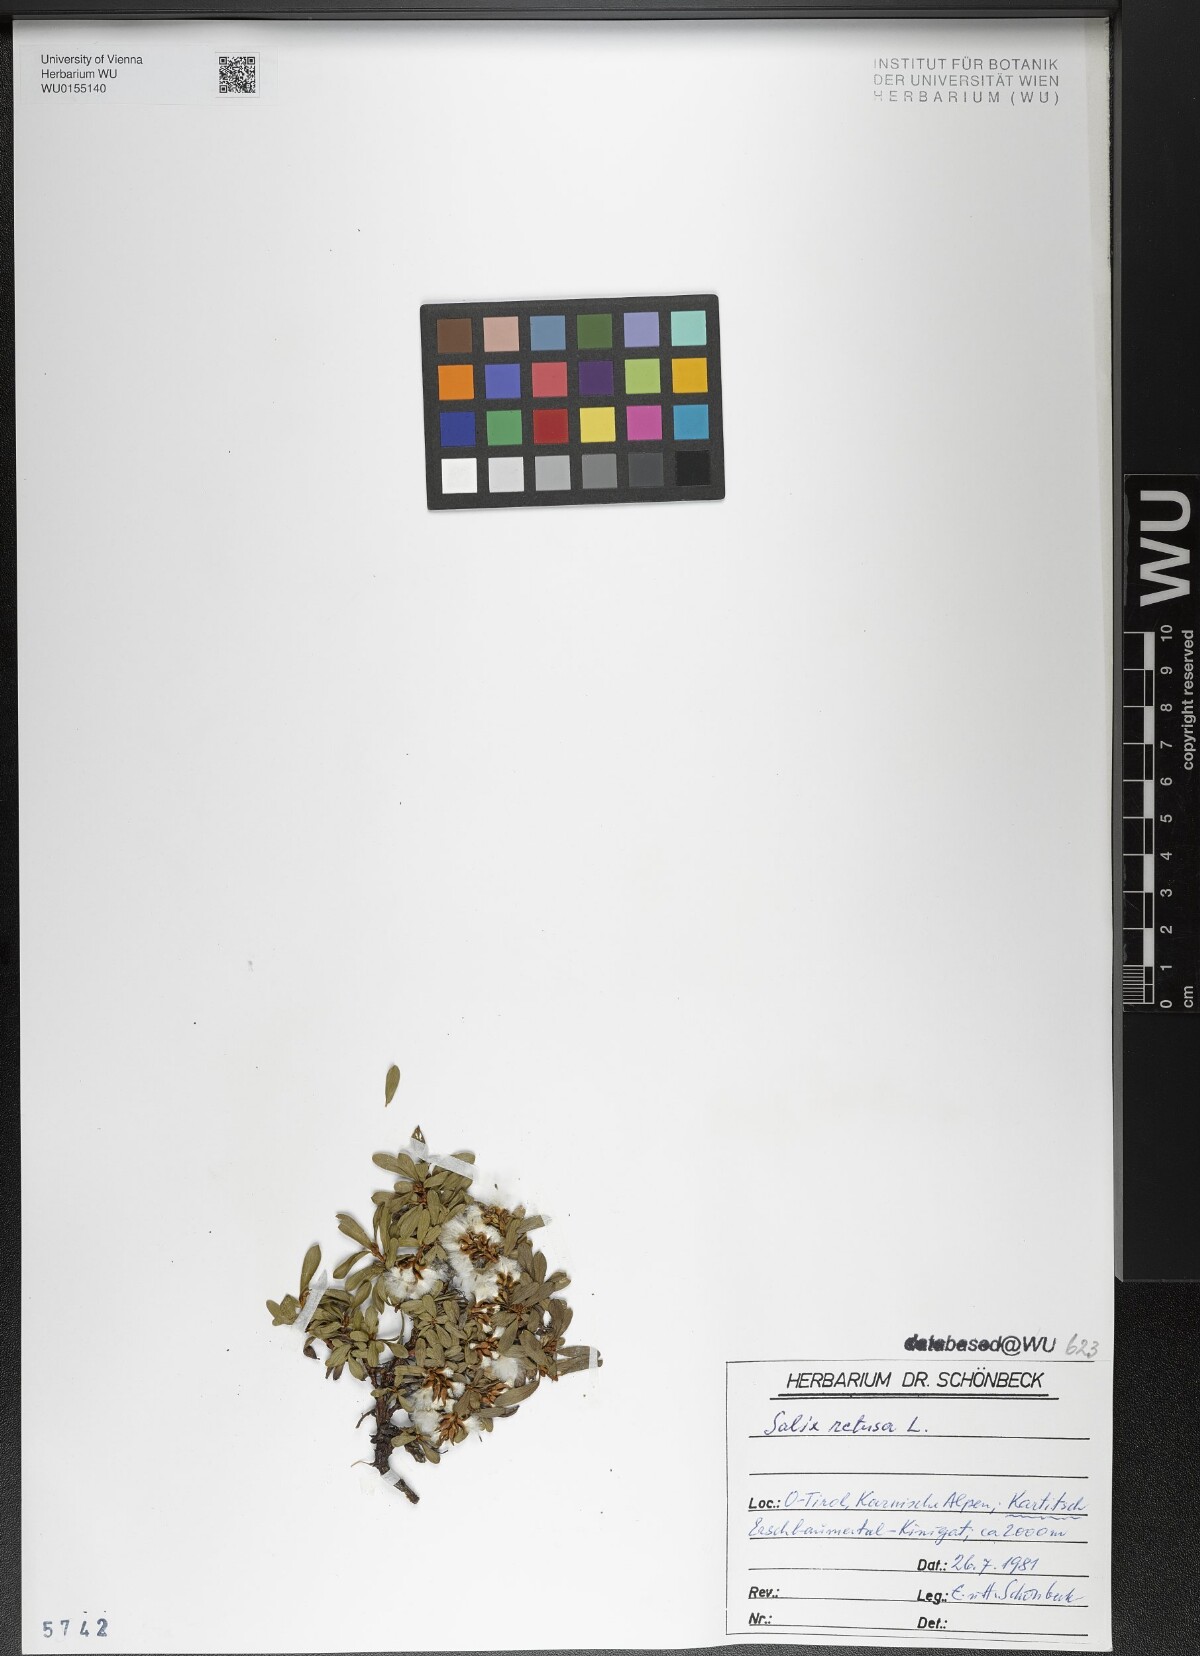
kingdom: Plantae
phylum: Tracheophyta
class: Magnoliopsida
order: Malpighiales
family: Salicaceae
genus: Salix
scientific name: Salix retusa
